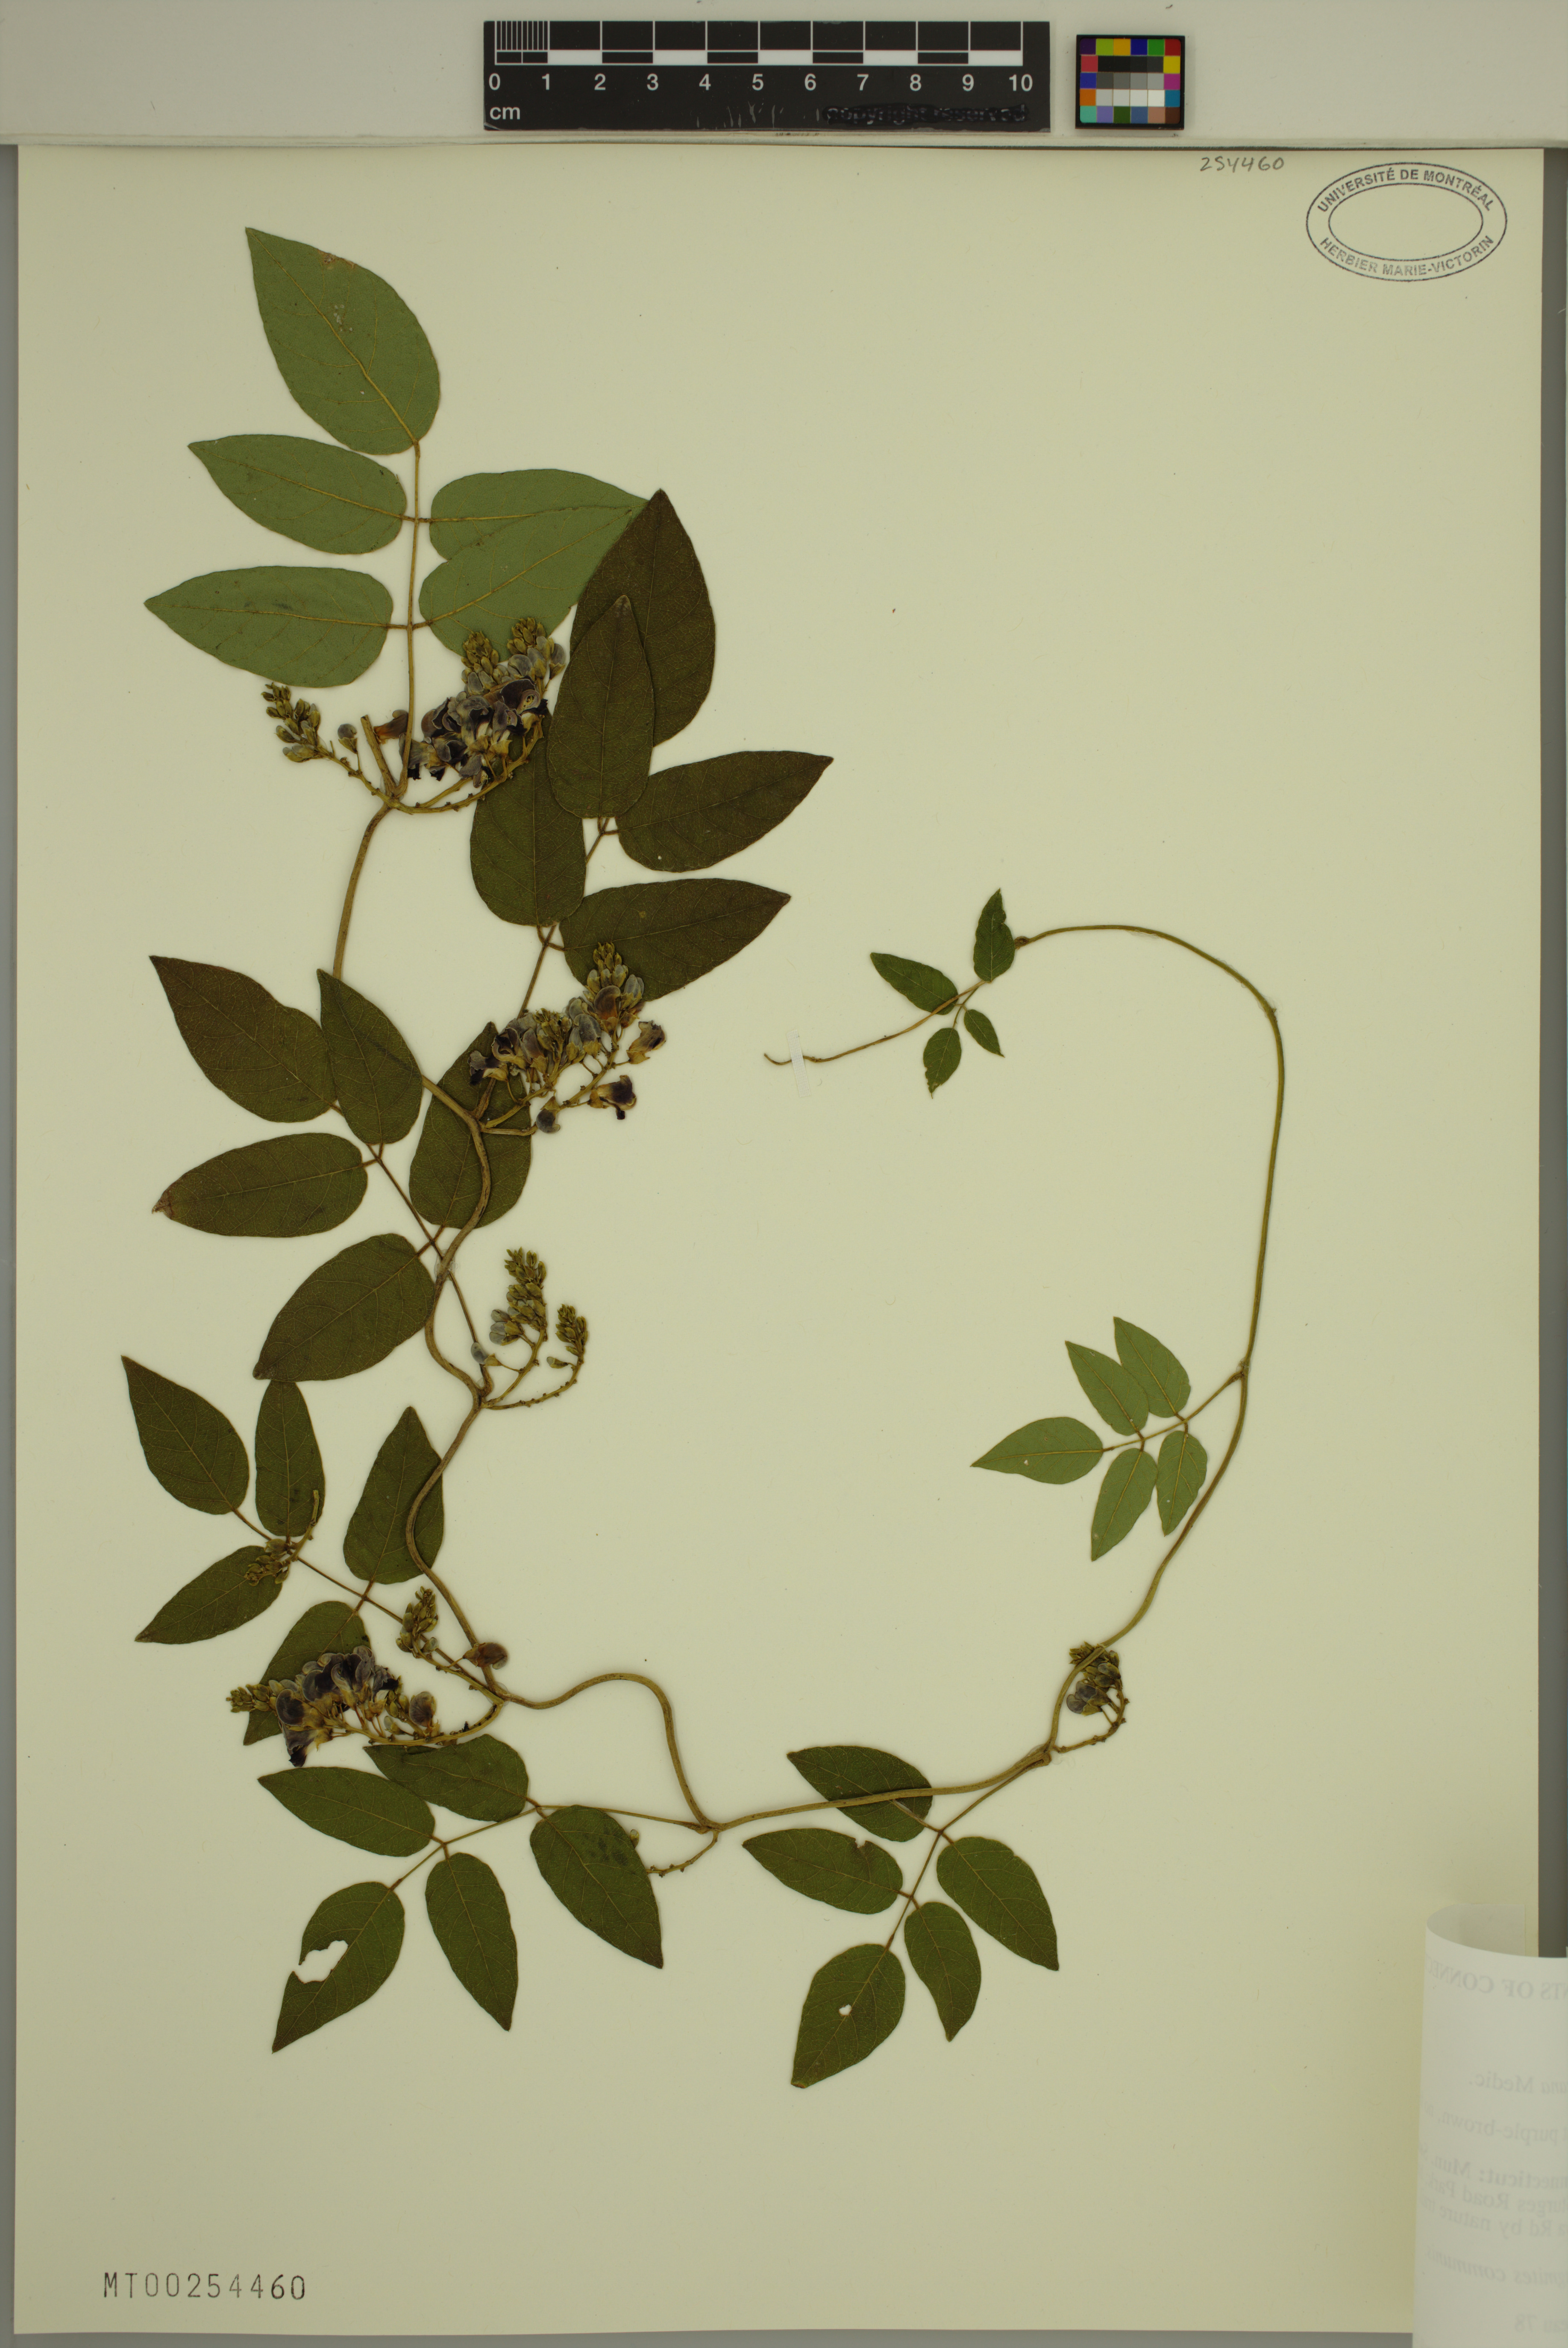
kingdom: Plantae
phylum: Tracheophyta
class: Magnoliopsida
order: Fabales
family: Fabaceae
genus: Apios
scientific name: Apios americana
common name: American potato-bean
